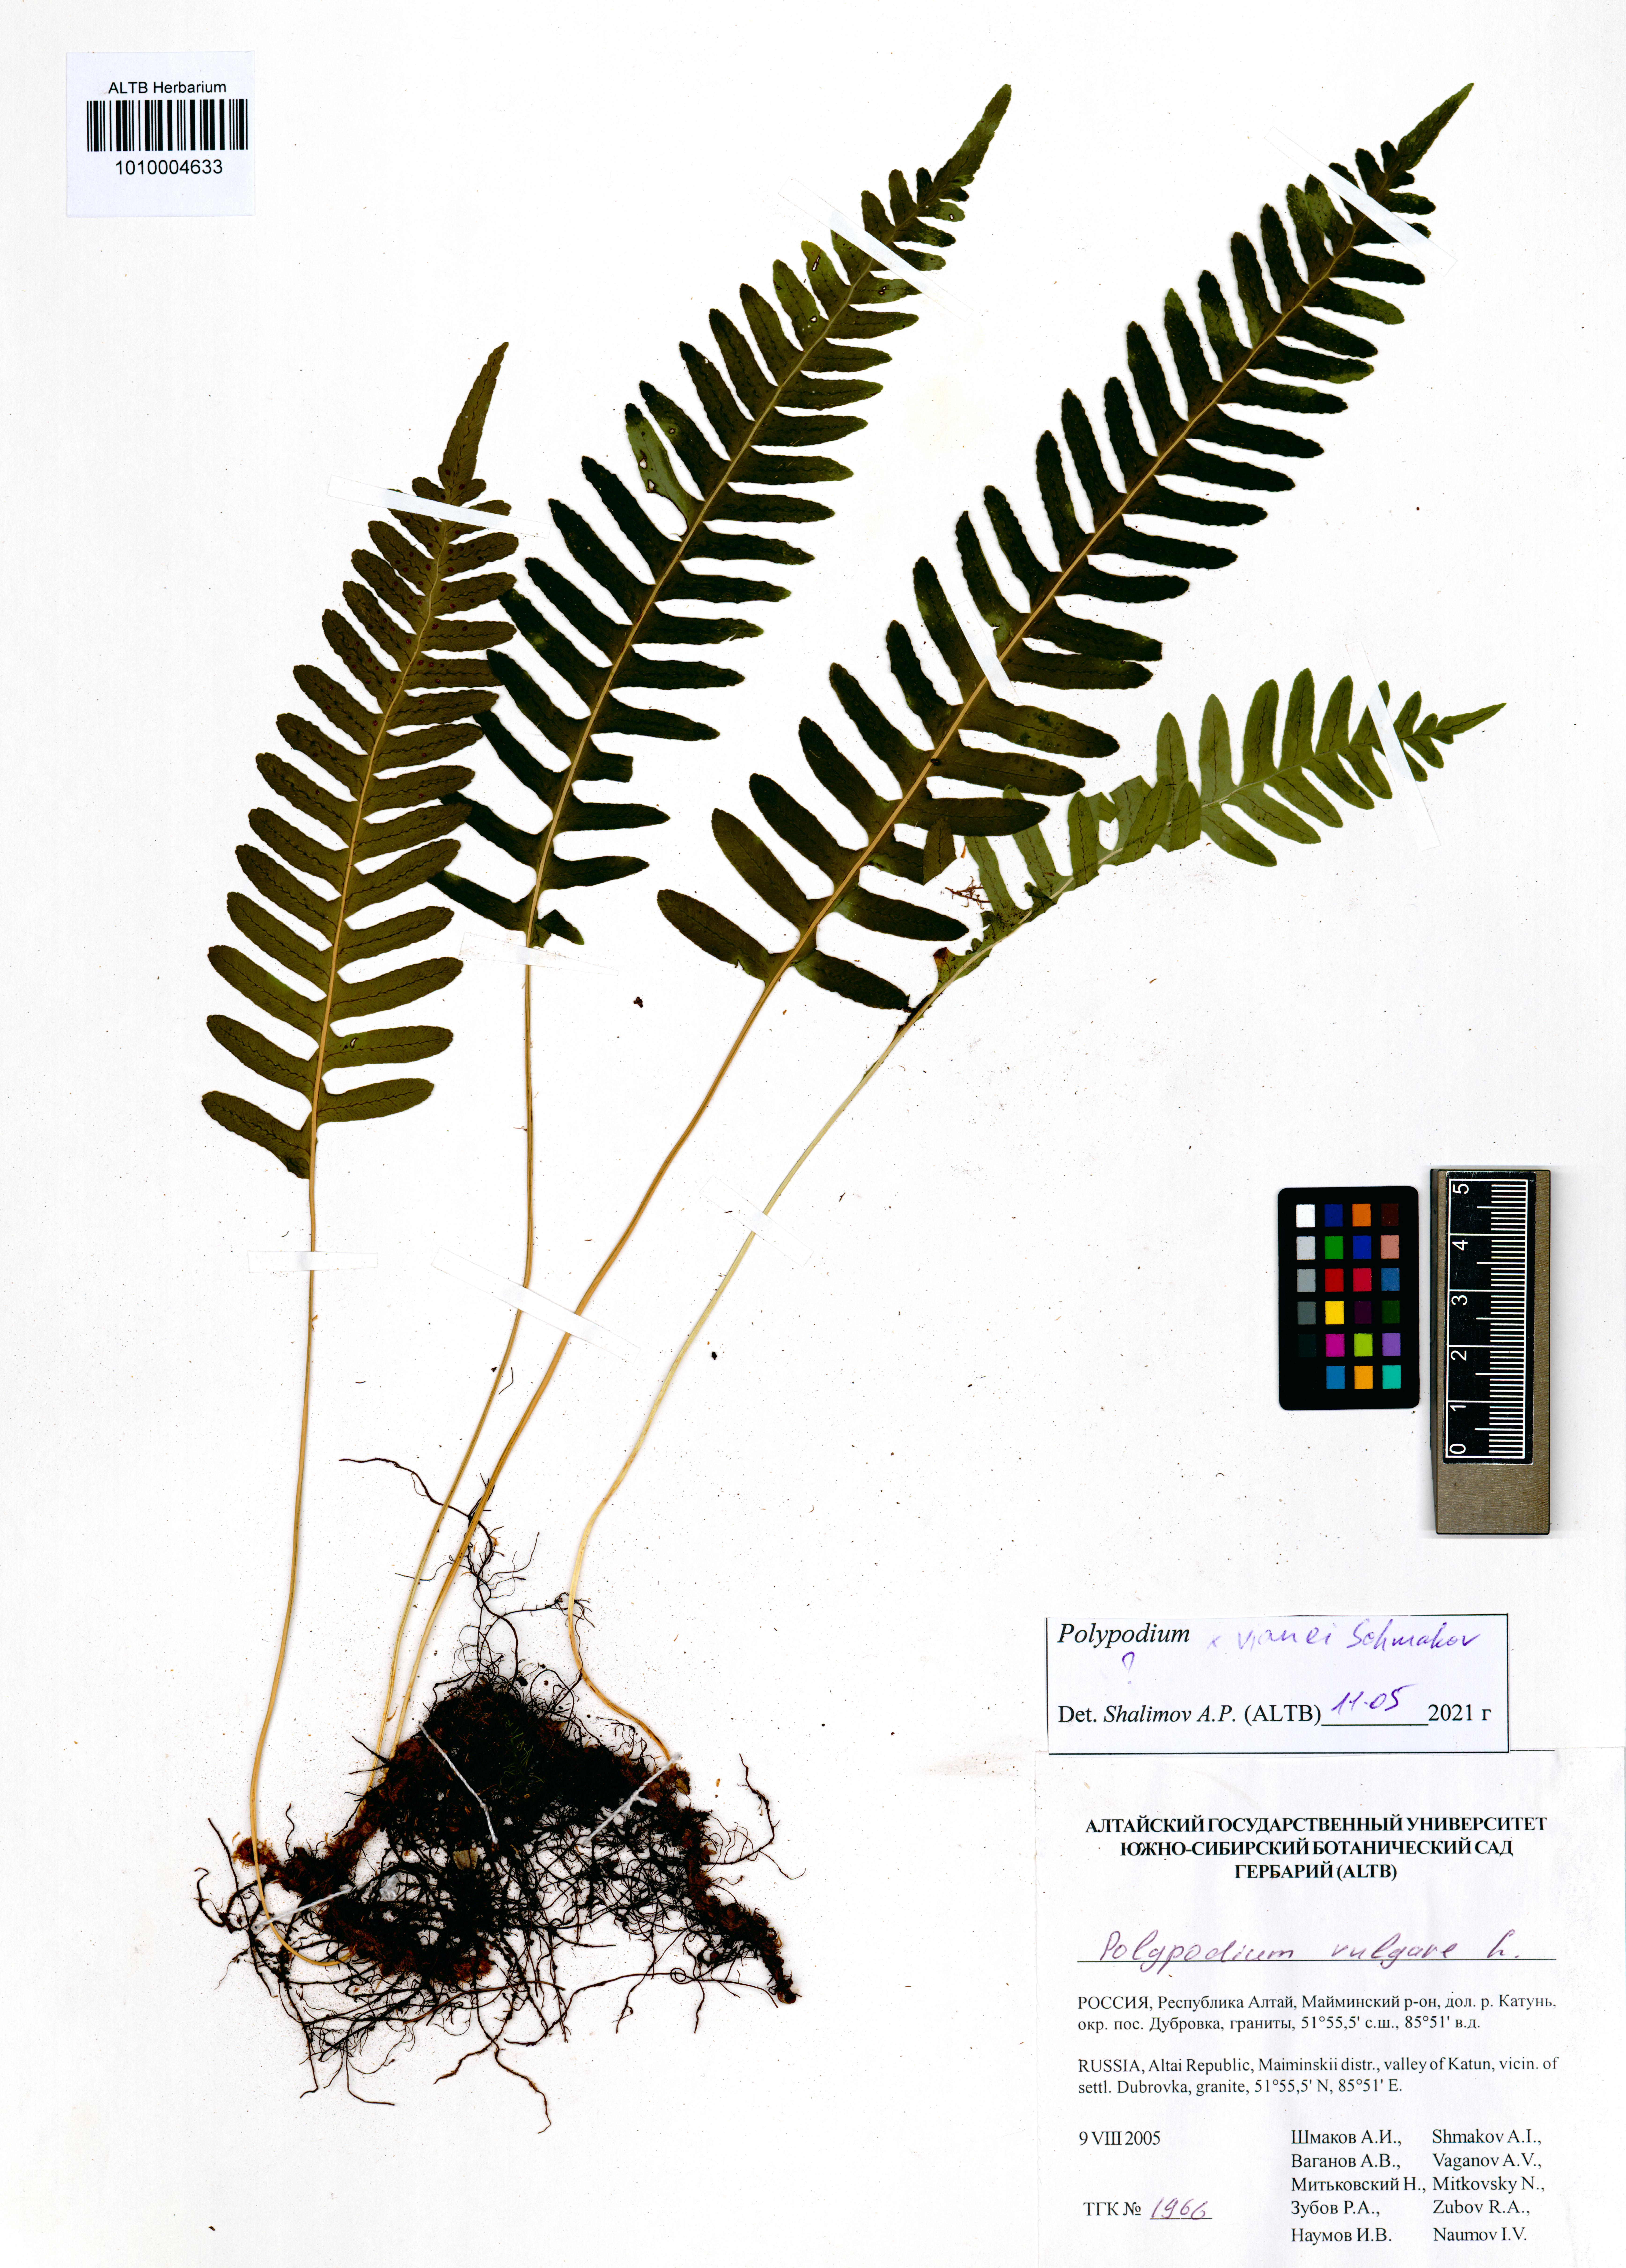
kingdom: Plantae
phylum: Tracheophyta
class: Polypodiopsida
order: Polypodiales
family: Polypodiaceae
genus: Polypodium
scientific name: Polypodium vianei
